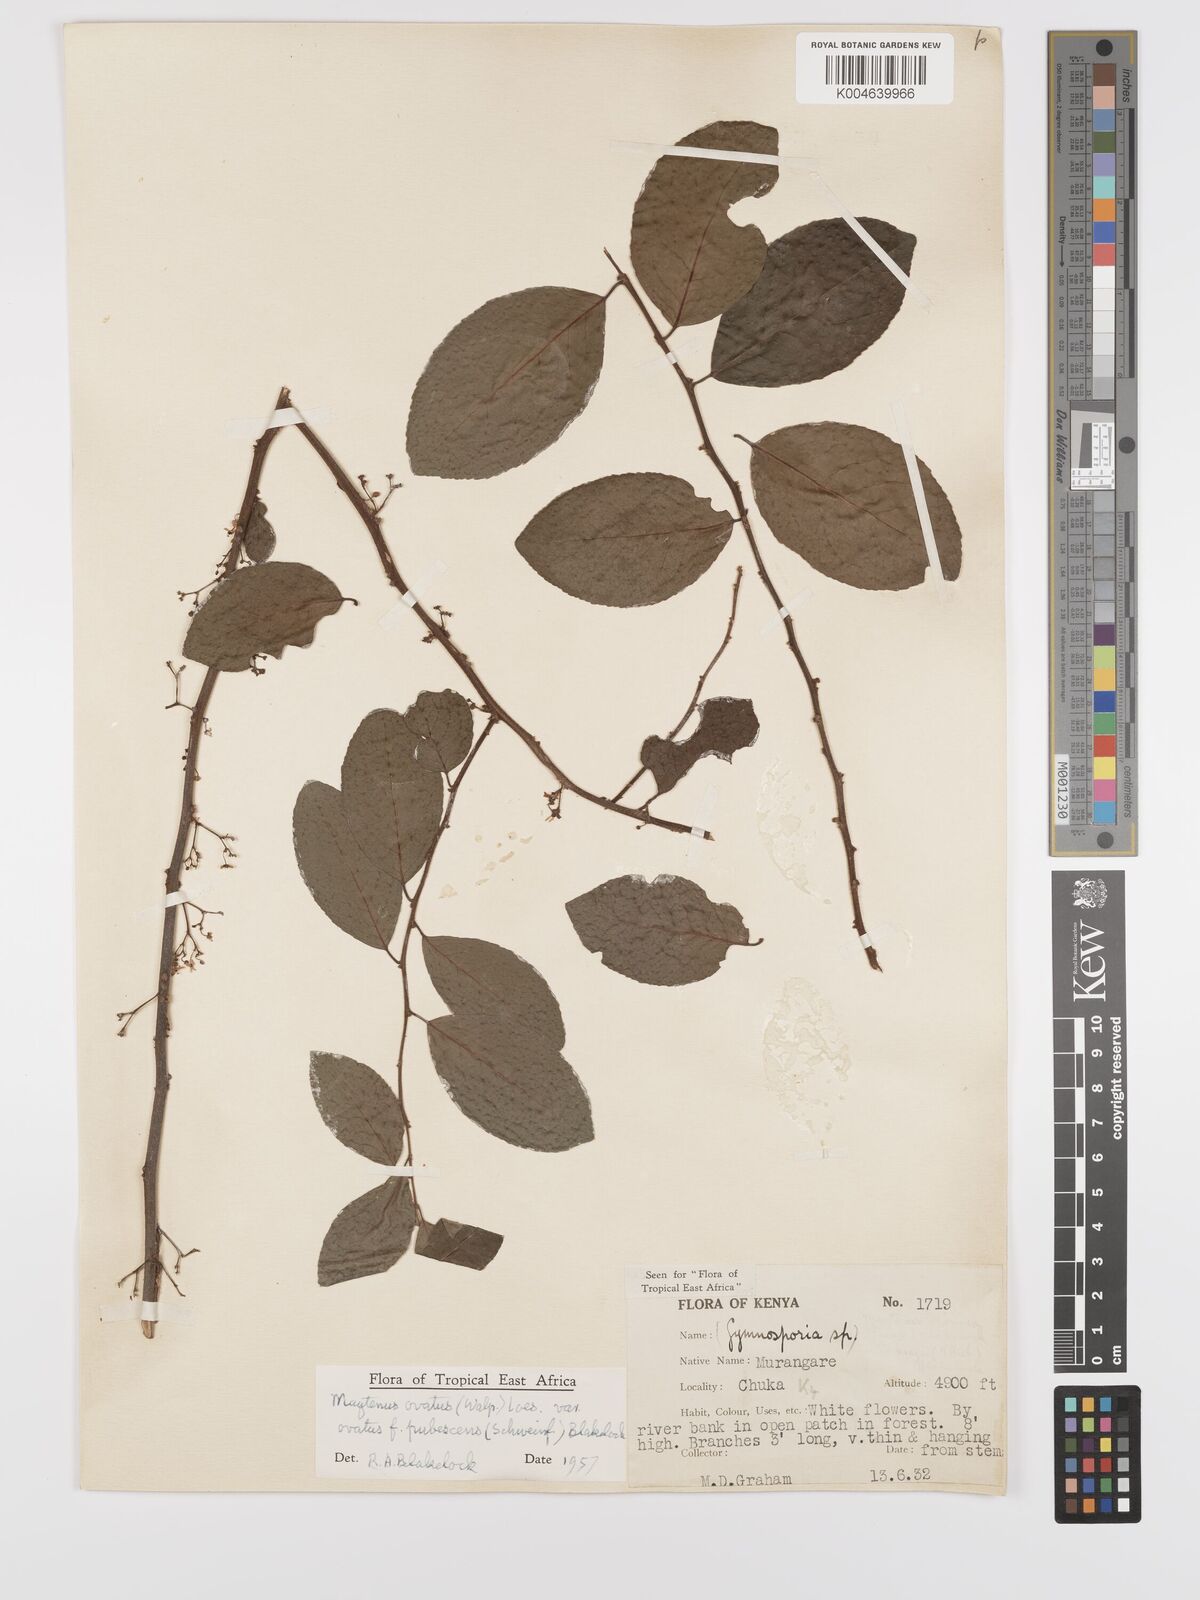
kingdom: Plantae
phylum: Tracheophyta
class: Magnoliopsida
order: Celastrales
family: Celastraceae
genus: Gymnosporia
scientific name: Gymnosporia
